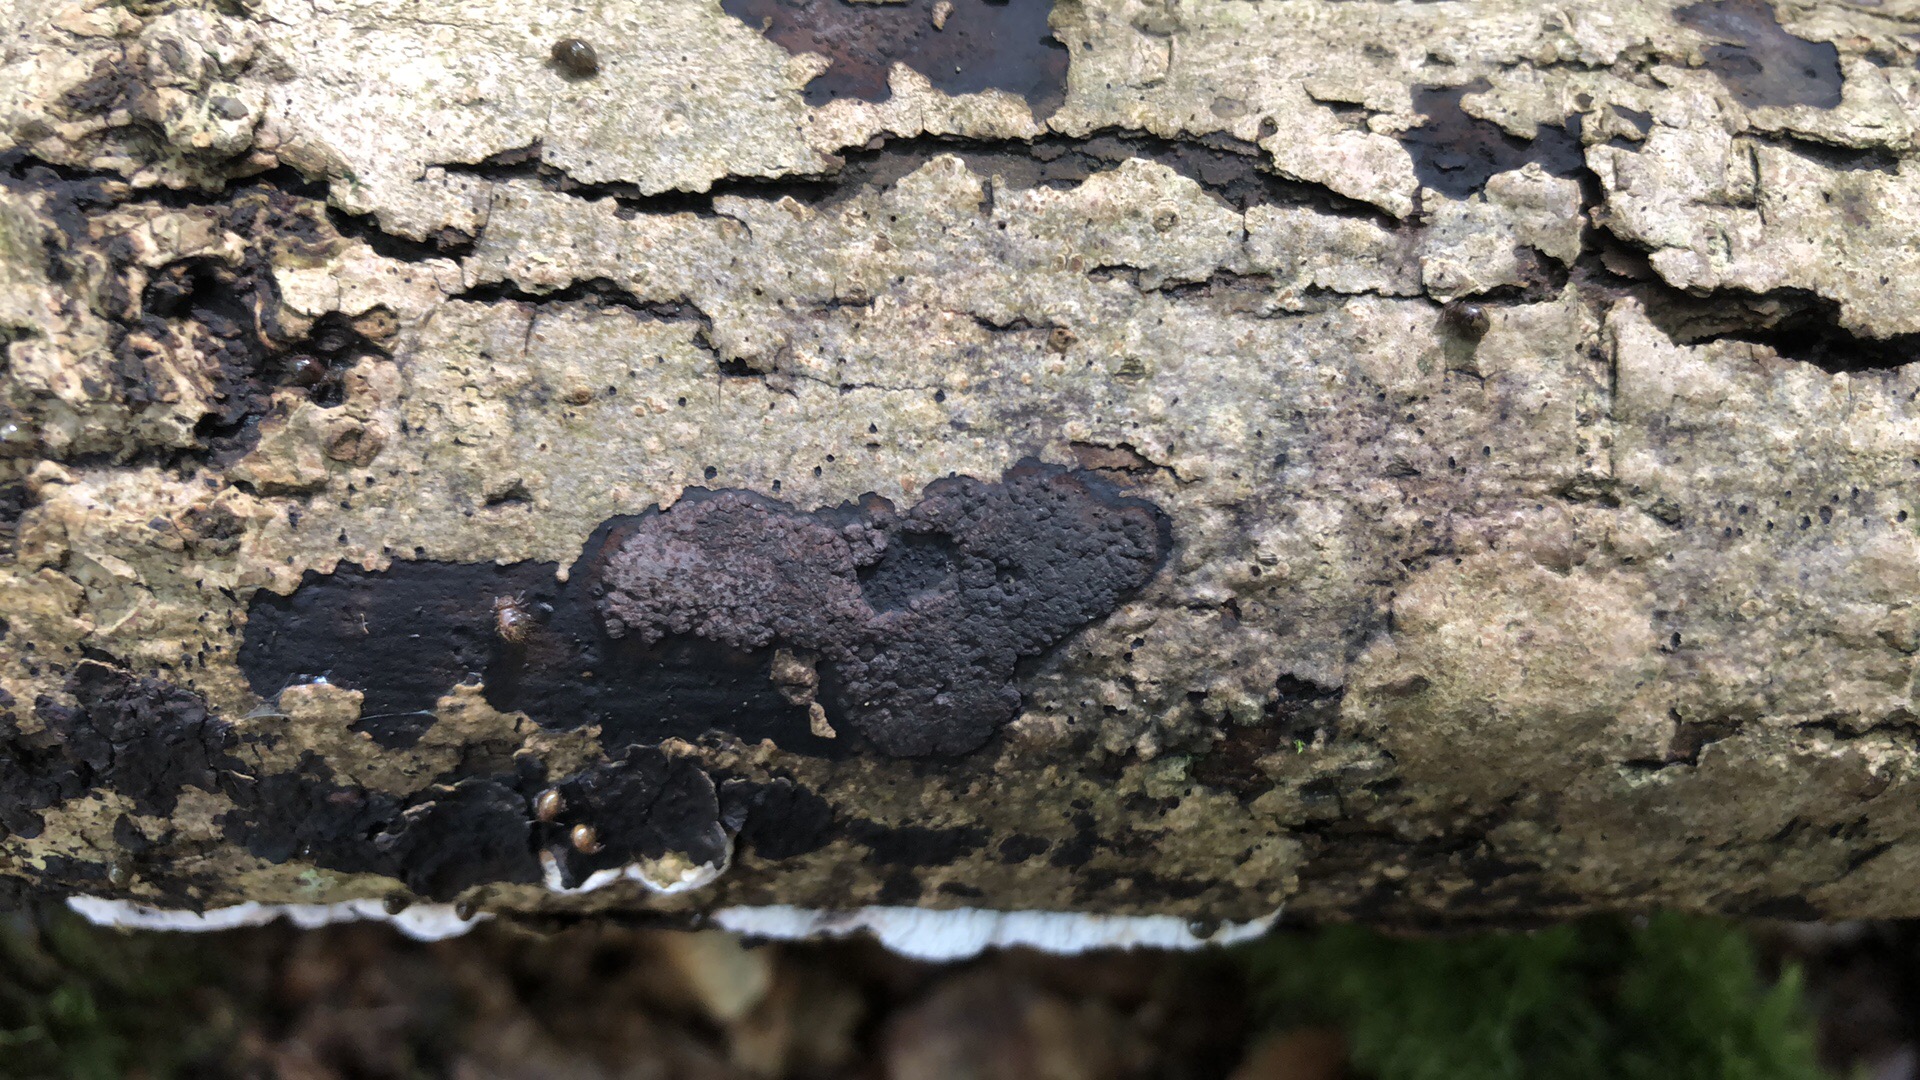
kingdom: Fungi
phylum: Ascomycota
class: Sordariomycetes
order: Xylariales
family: Hypoxylaceae
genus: Hypoxylon
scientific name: Hypoxylon petriniae
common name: nedsænket kulbær
